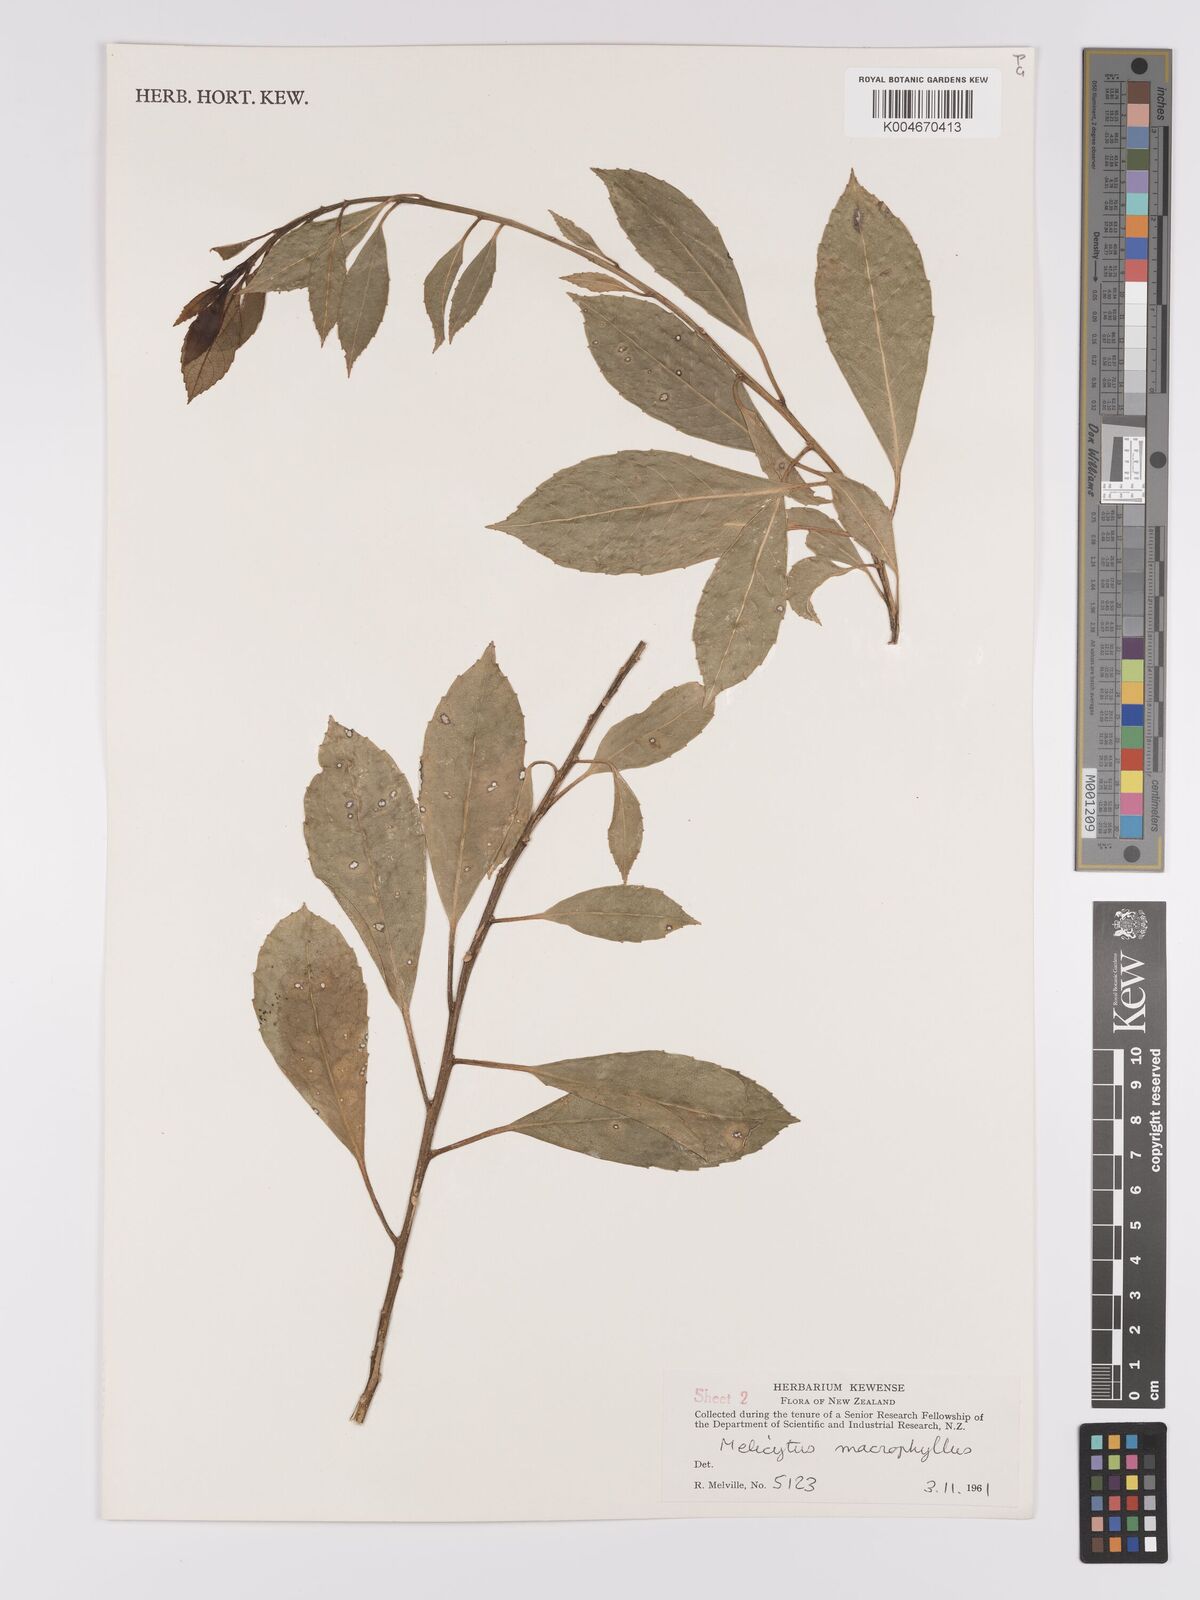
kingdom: Plantae
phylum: Tracheophyta
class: Magnoliopsida
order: Malpighiales
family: Violaceae
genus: Melicytus
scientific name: Melicytus macrophyllus
